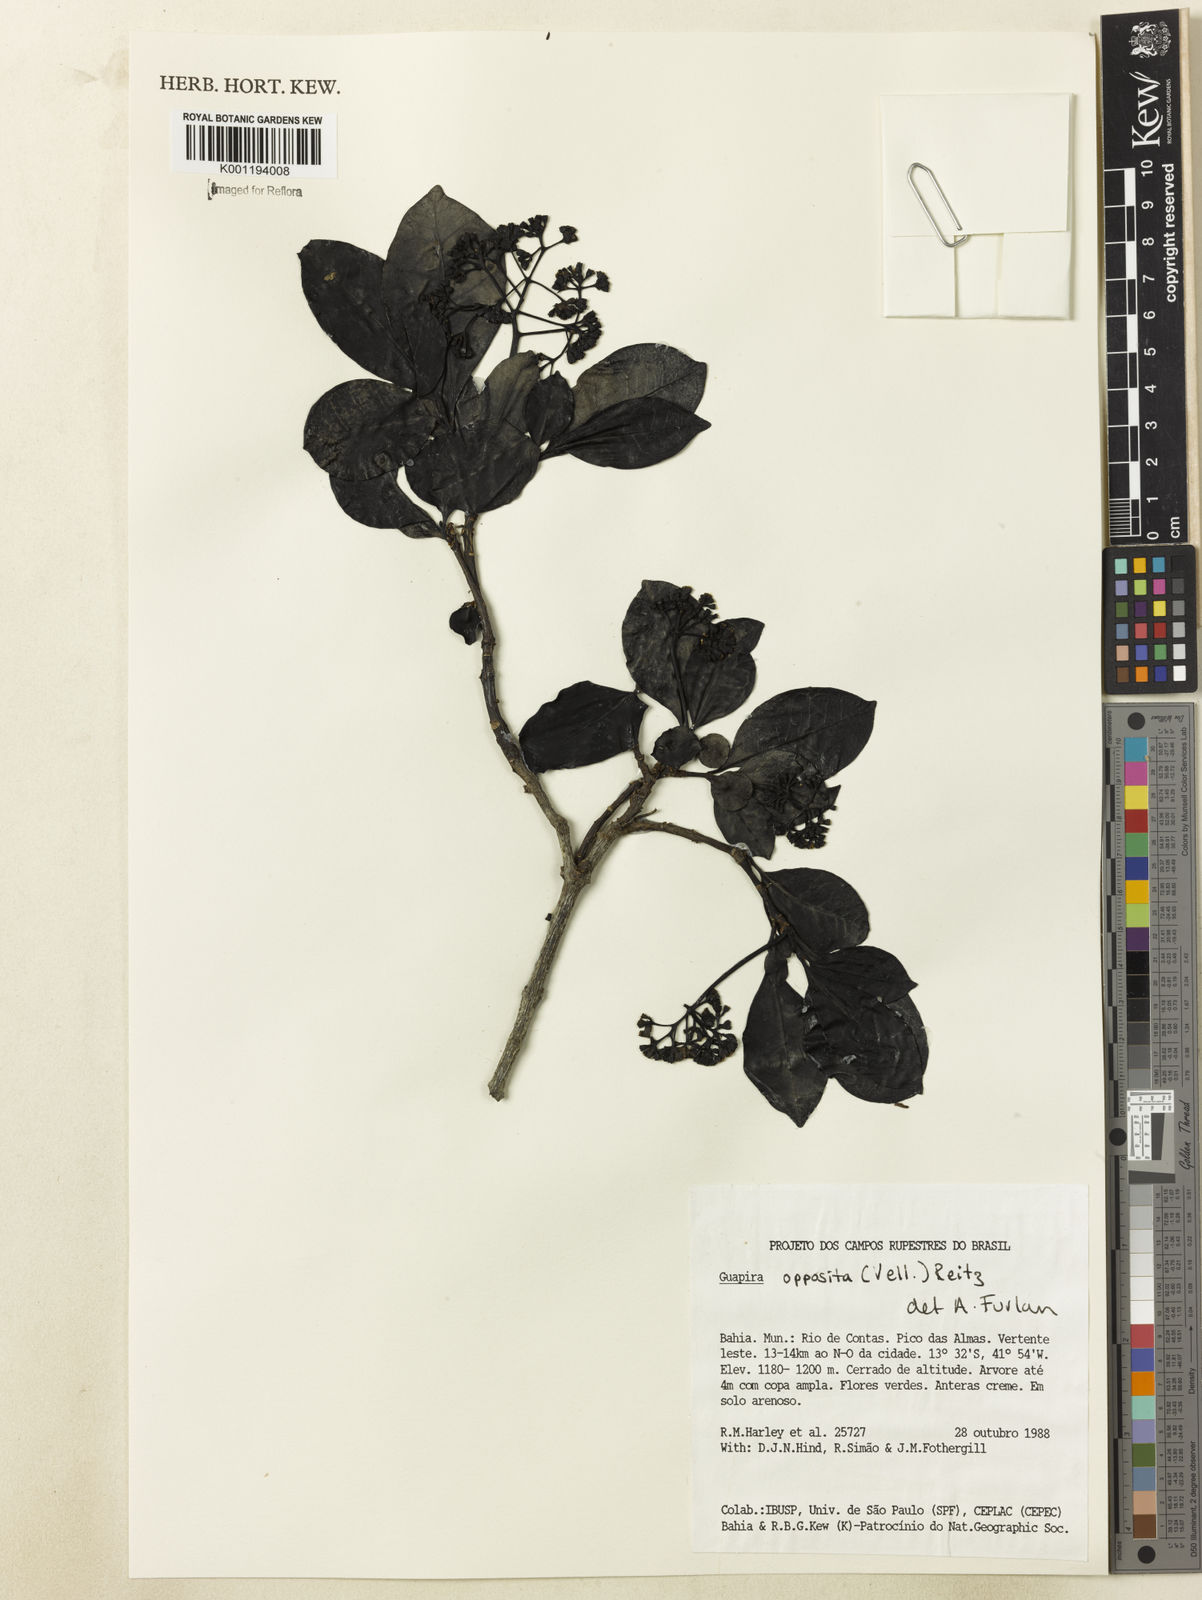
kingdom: Plantae
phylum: Tracheophyta
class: Magnoliopsida
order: Caryophyllales
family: Nyctaginaceae
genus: Guapira
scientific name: Guapira opposita
